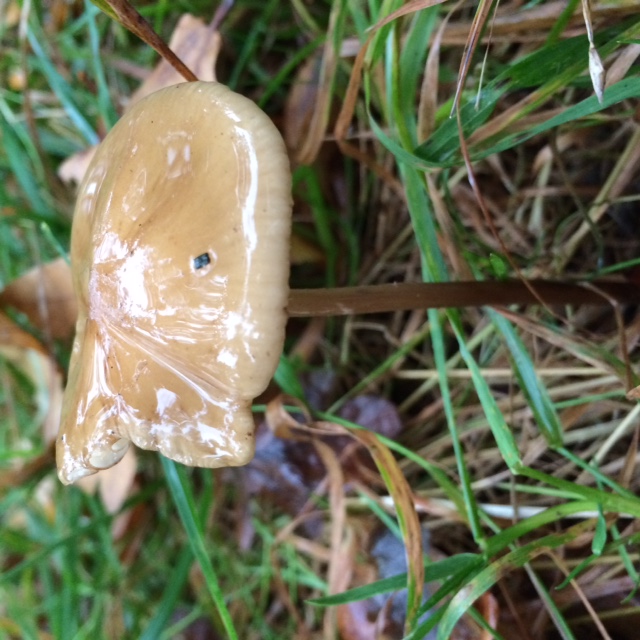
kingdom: Fungi
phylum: Basidiomycota
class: Agaricomycetes
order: Agaricales
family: Physalacriaceae
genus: Hymenopellis
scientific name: Hymenopellis radicata
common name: almindelig pælerodshat
